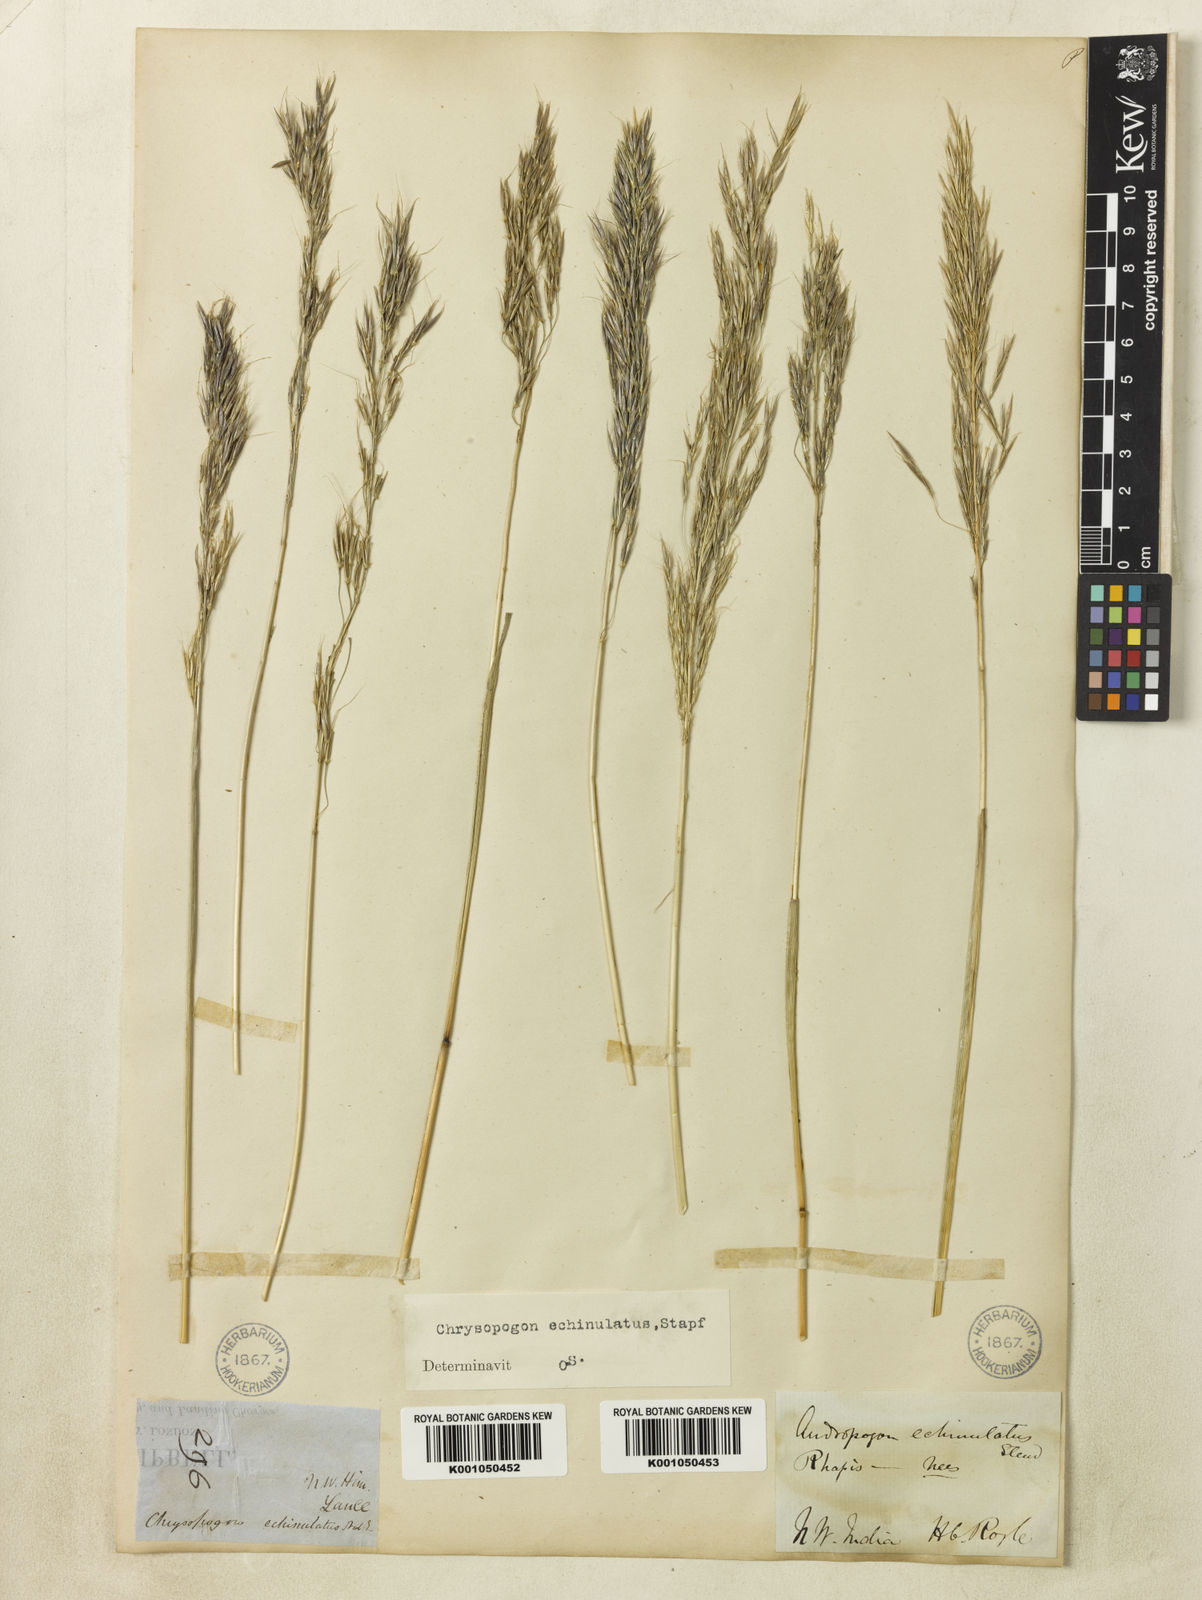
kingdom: Plantae
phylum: Tracheophyta
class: Liliopsida
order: Poales
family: Poaceae
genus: Chrysopogon
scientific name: Chrysopogon gryllus
